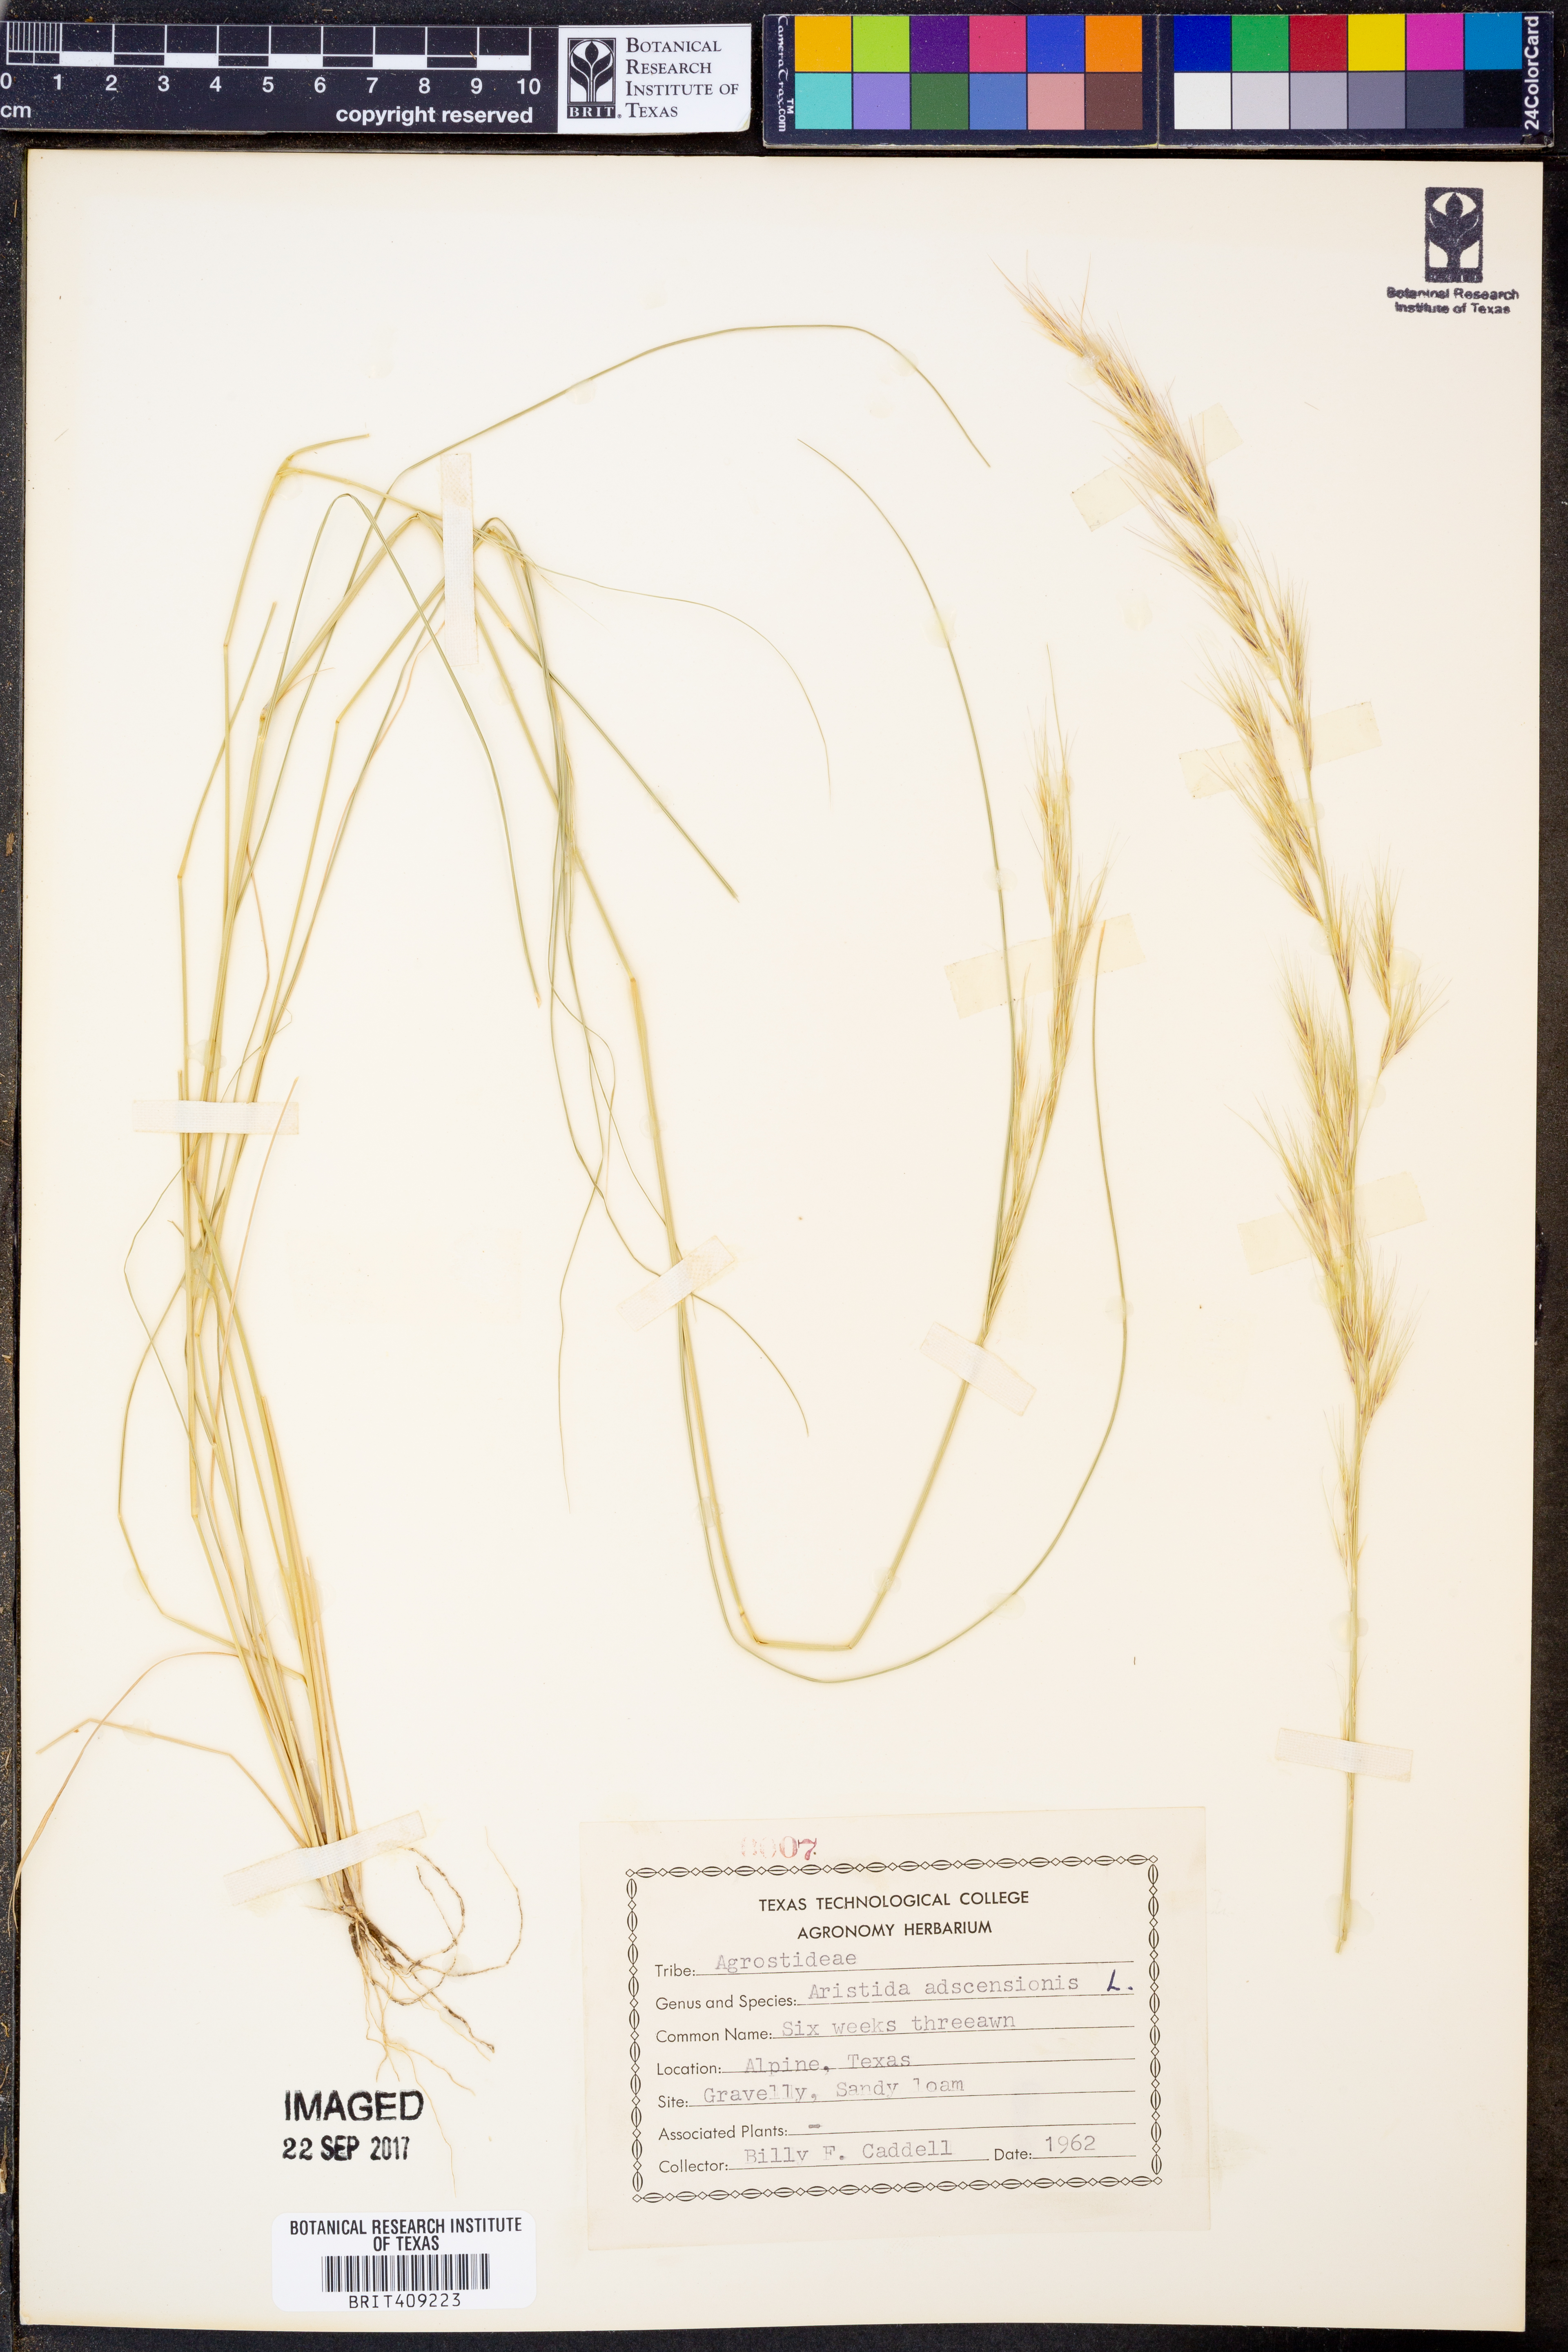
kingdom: Plantae
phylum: Tracheophyta
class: Liliopsida
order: Poales
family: Poaceae
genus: Aristida
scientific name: Aristida adscensionis
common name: Sixweeks threeawn
